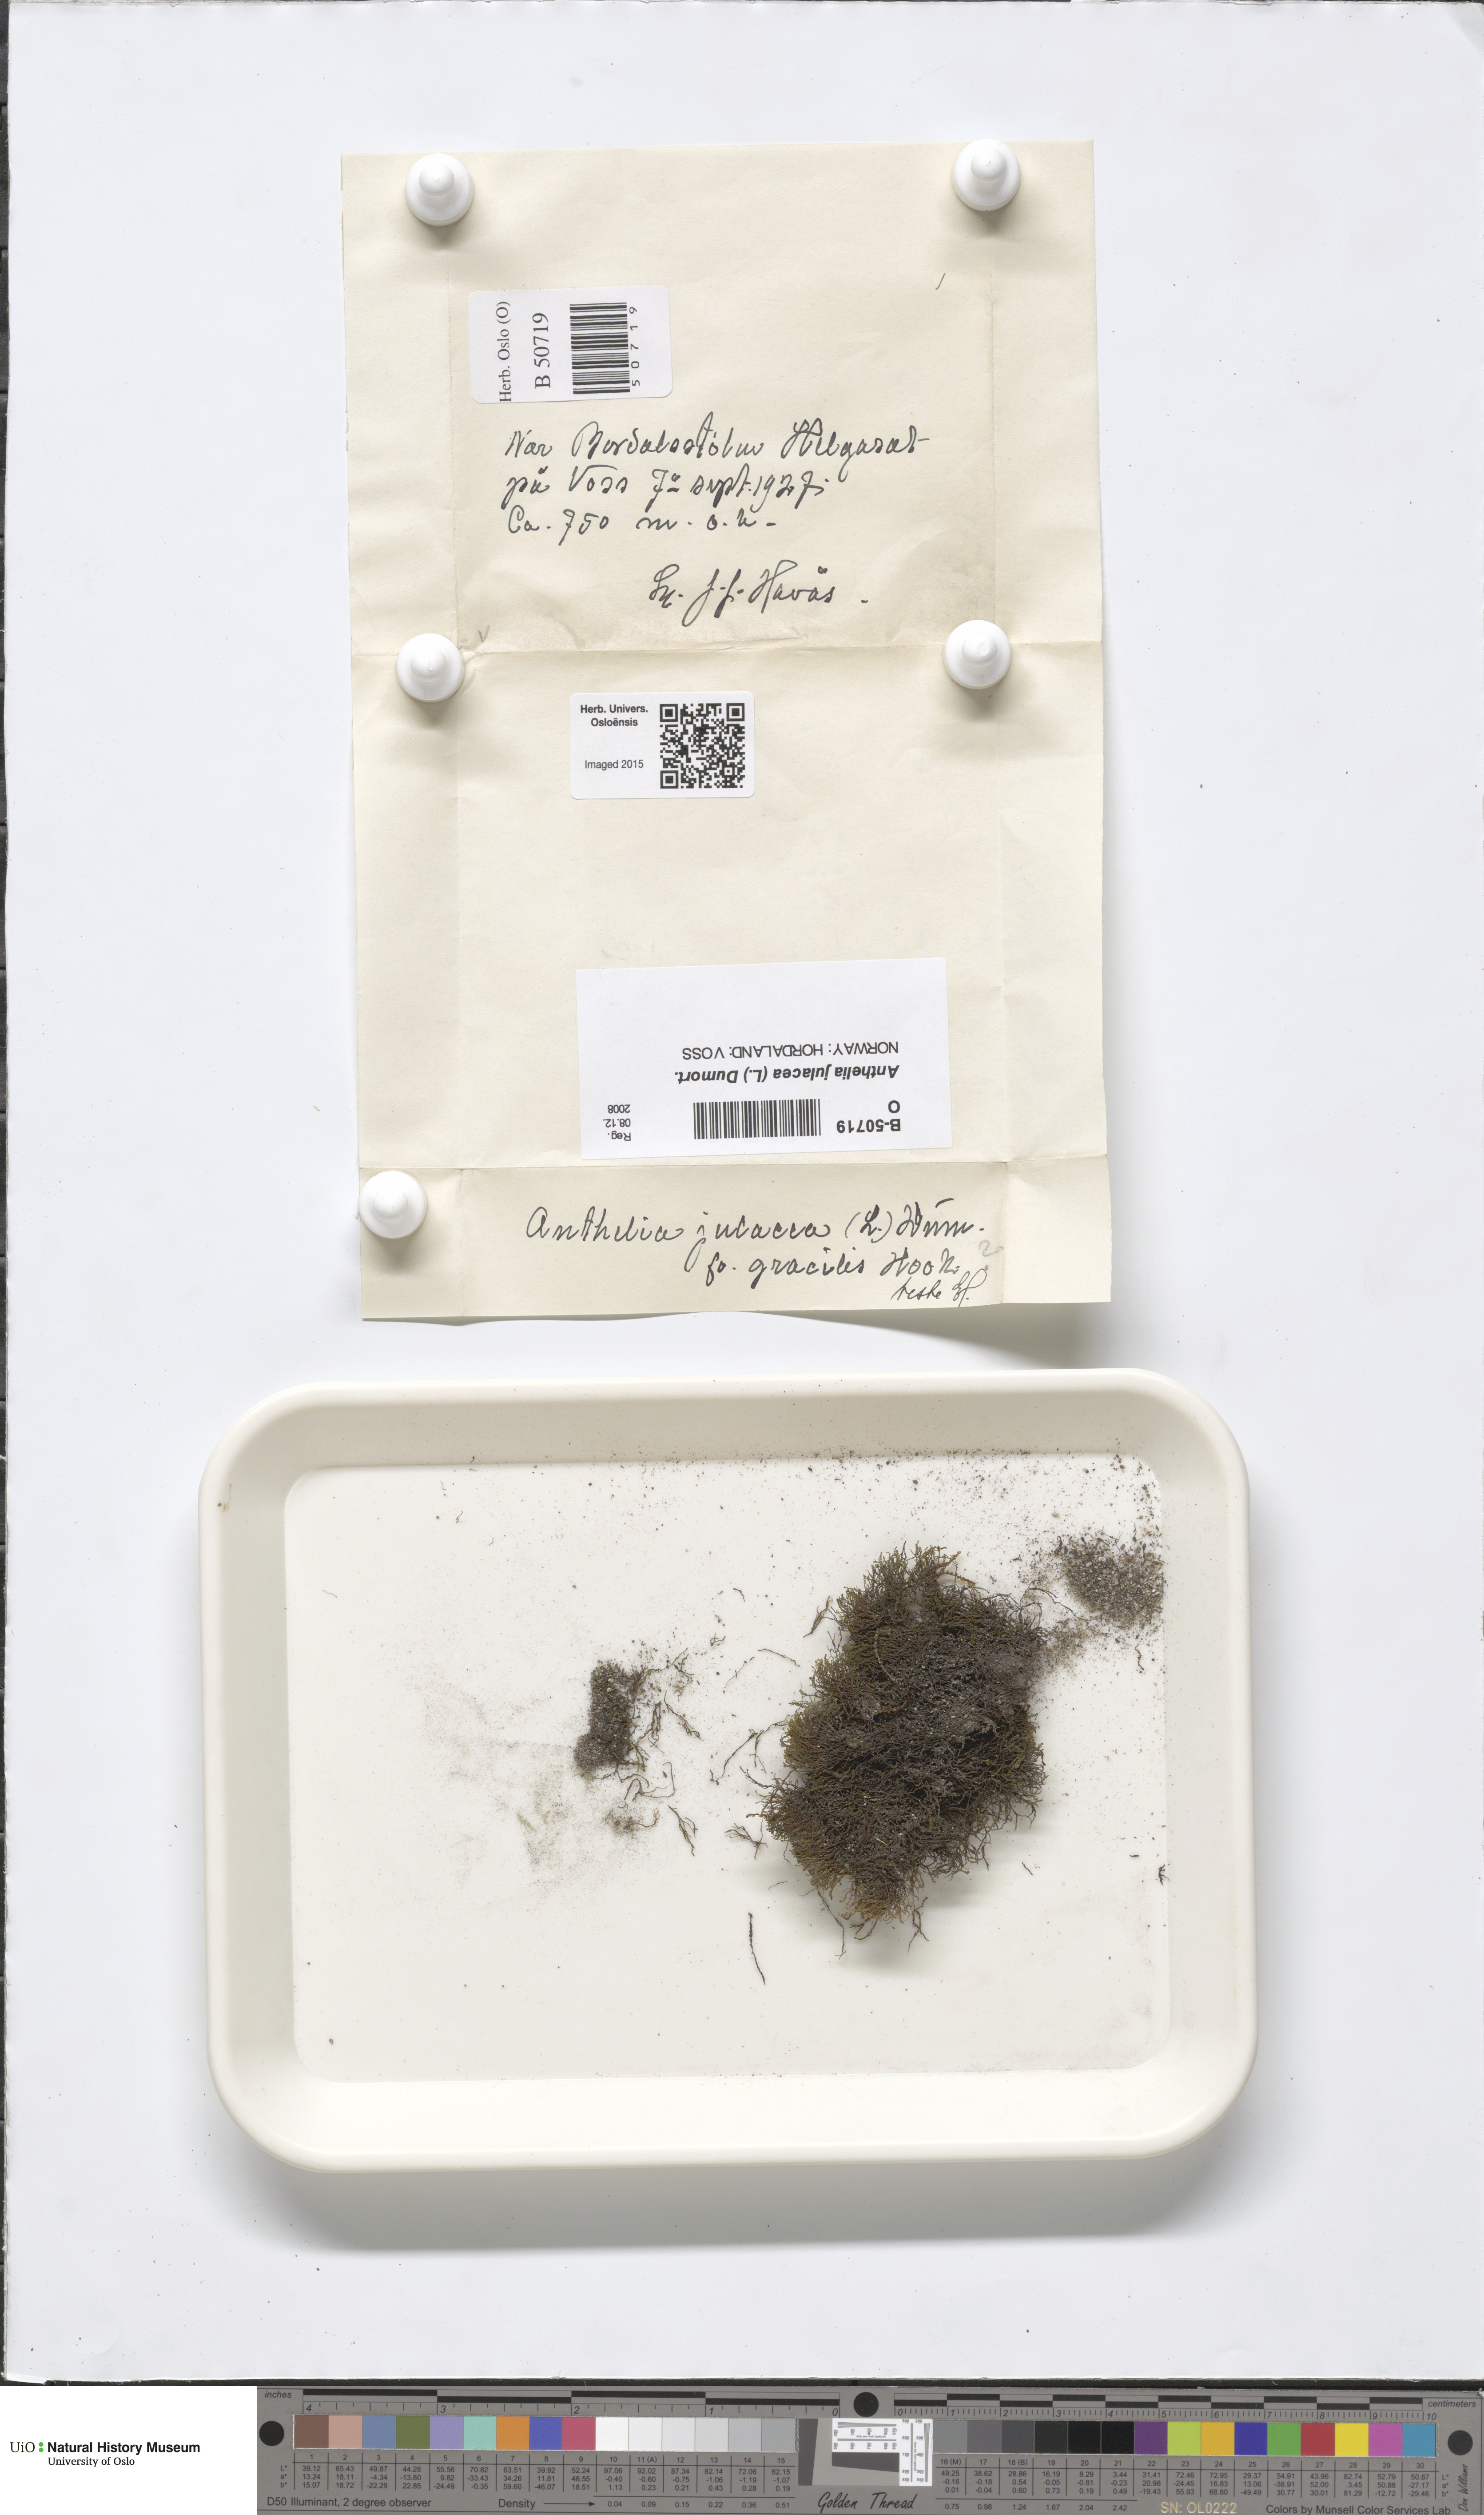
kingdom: Plantae
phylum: Marchantiophyta
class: Jungermanniopsida
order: Jungermanniales
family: Antheliaceae
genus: Anthelia
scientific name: Anthelia julacea
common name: Alpine silverwort
